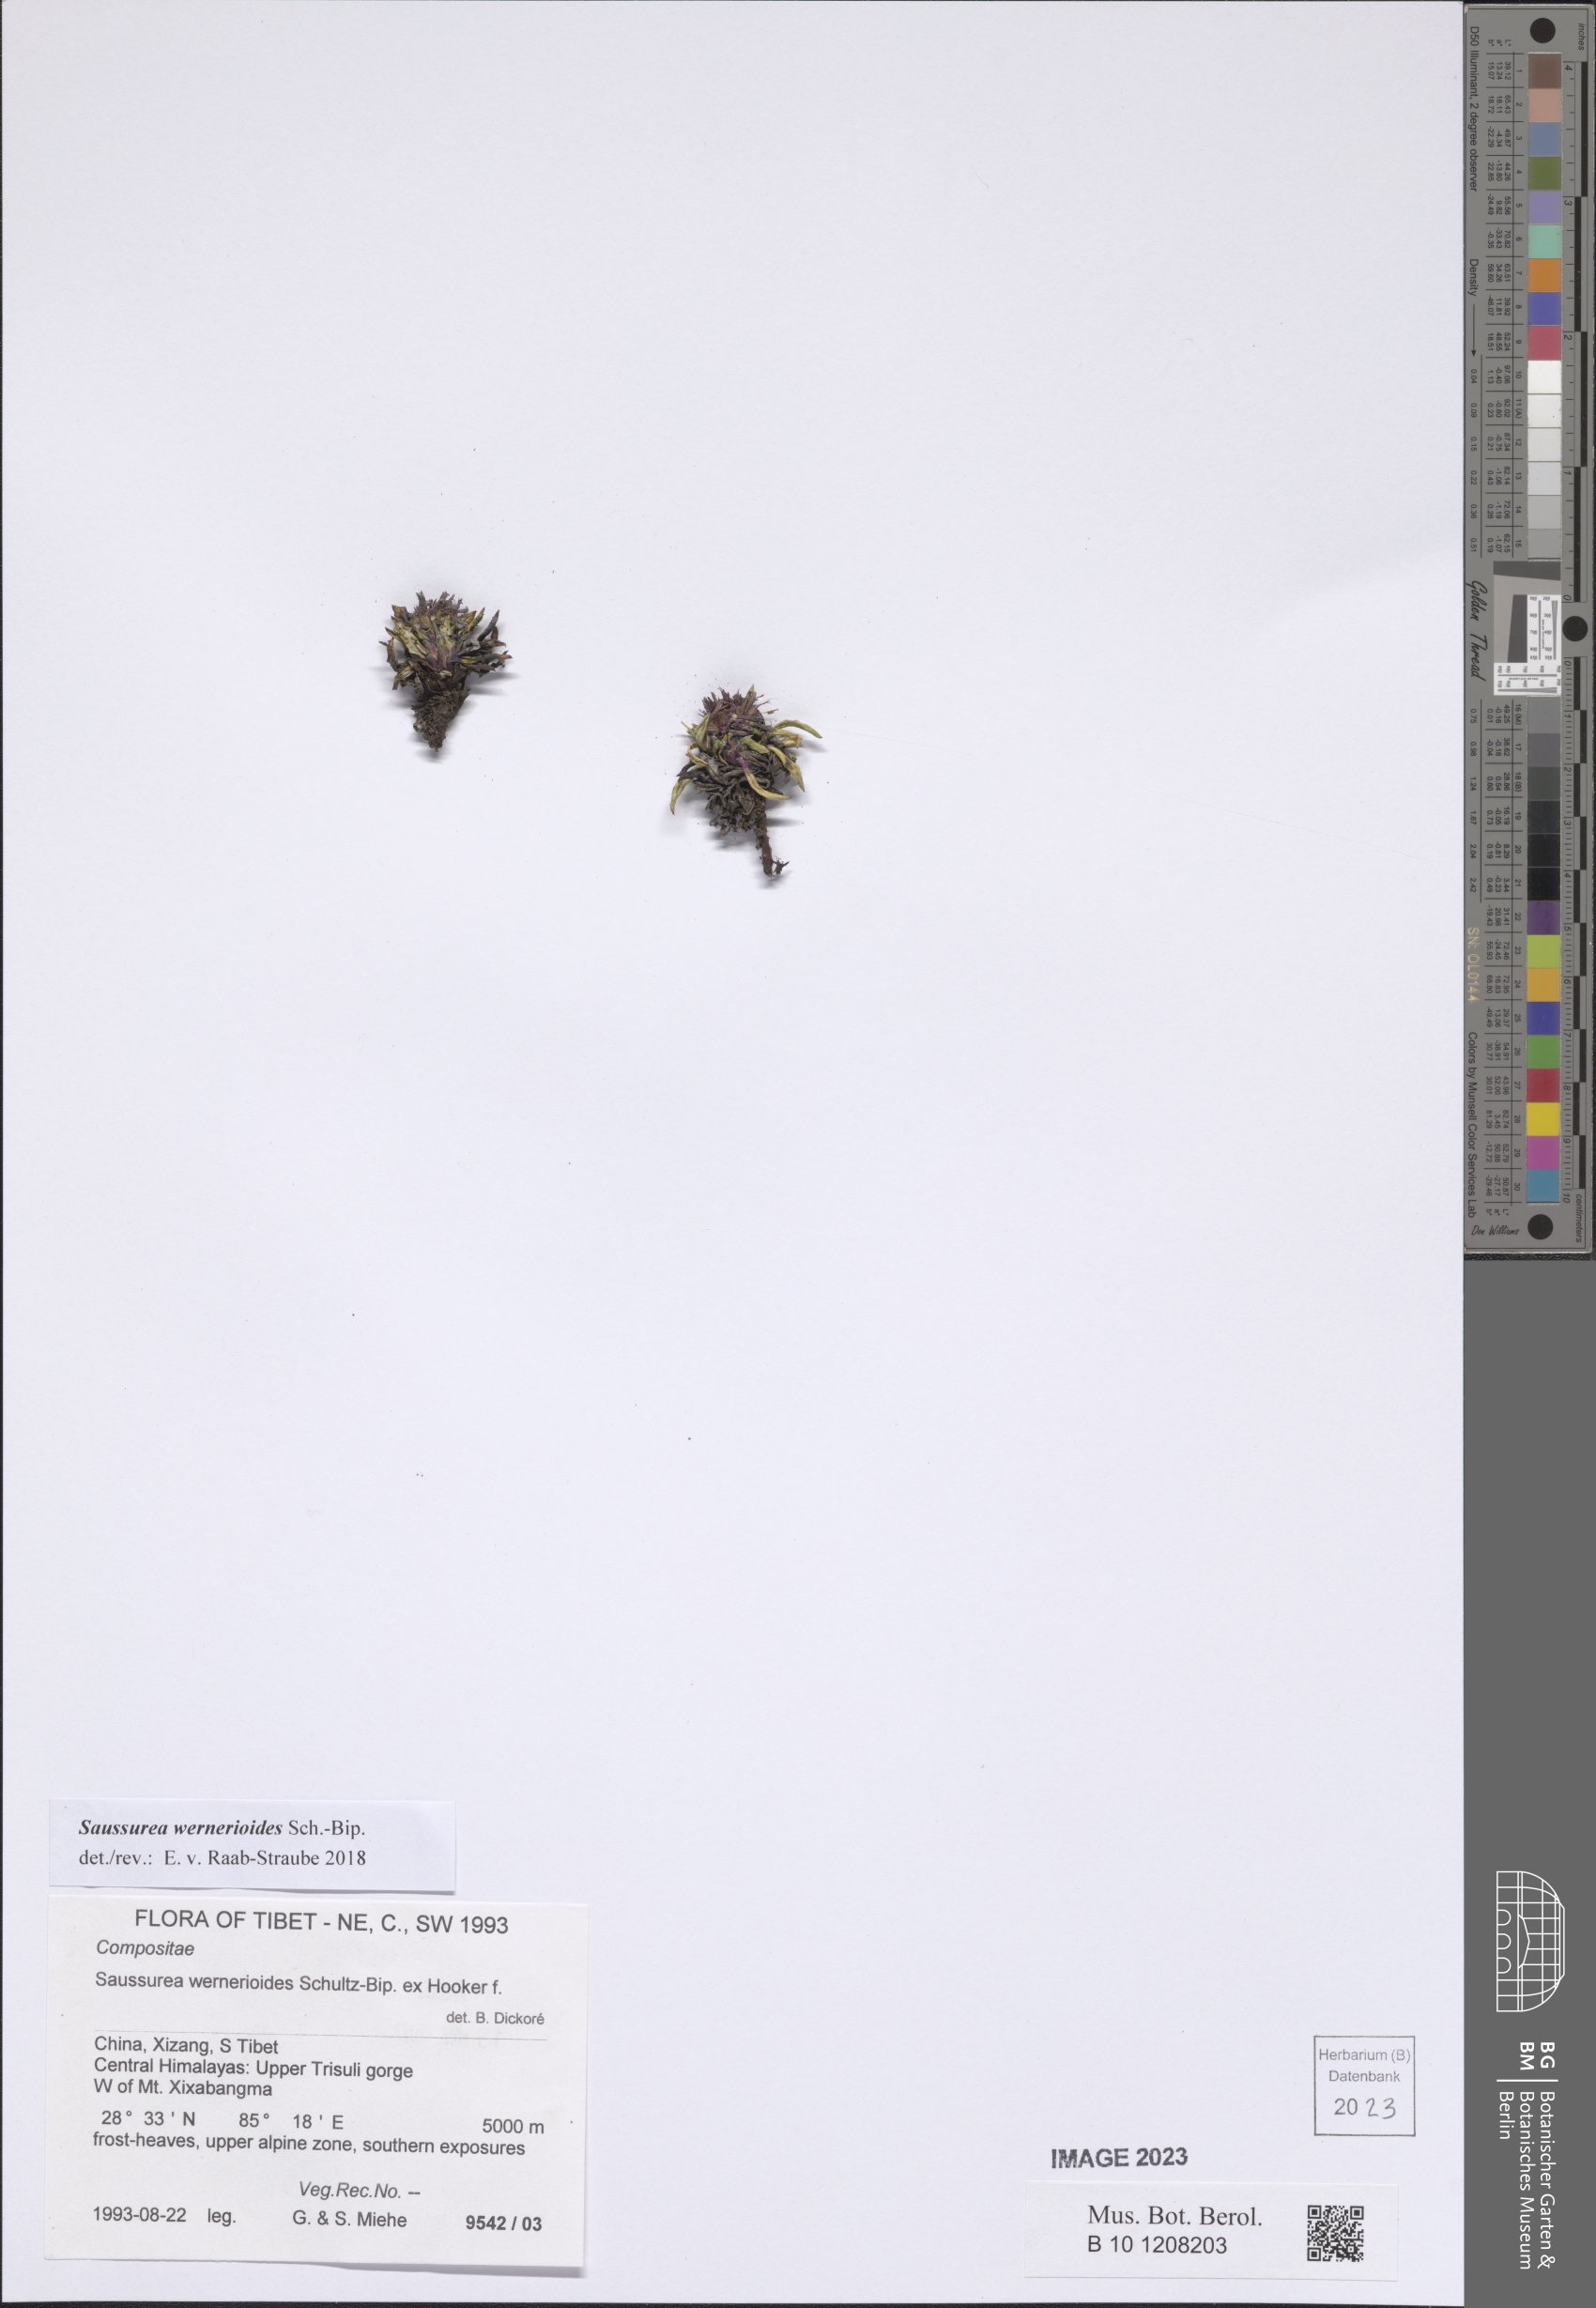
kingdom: Plantae
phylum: Tracheophyta
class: Magnoliopsida
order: Asterales
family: Asteraceae
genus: Saussurea
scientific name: Saussurea wernerioides
